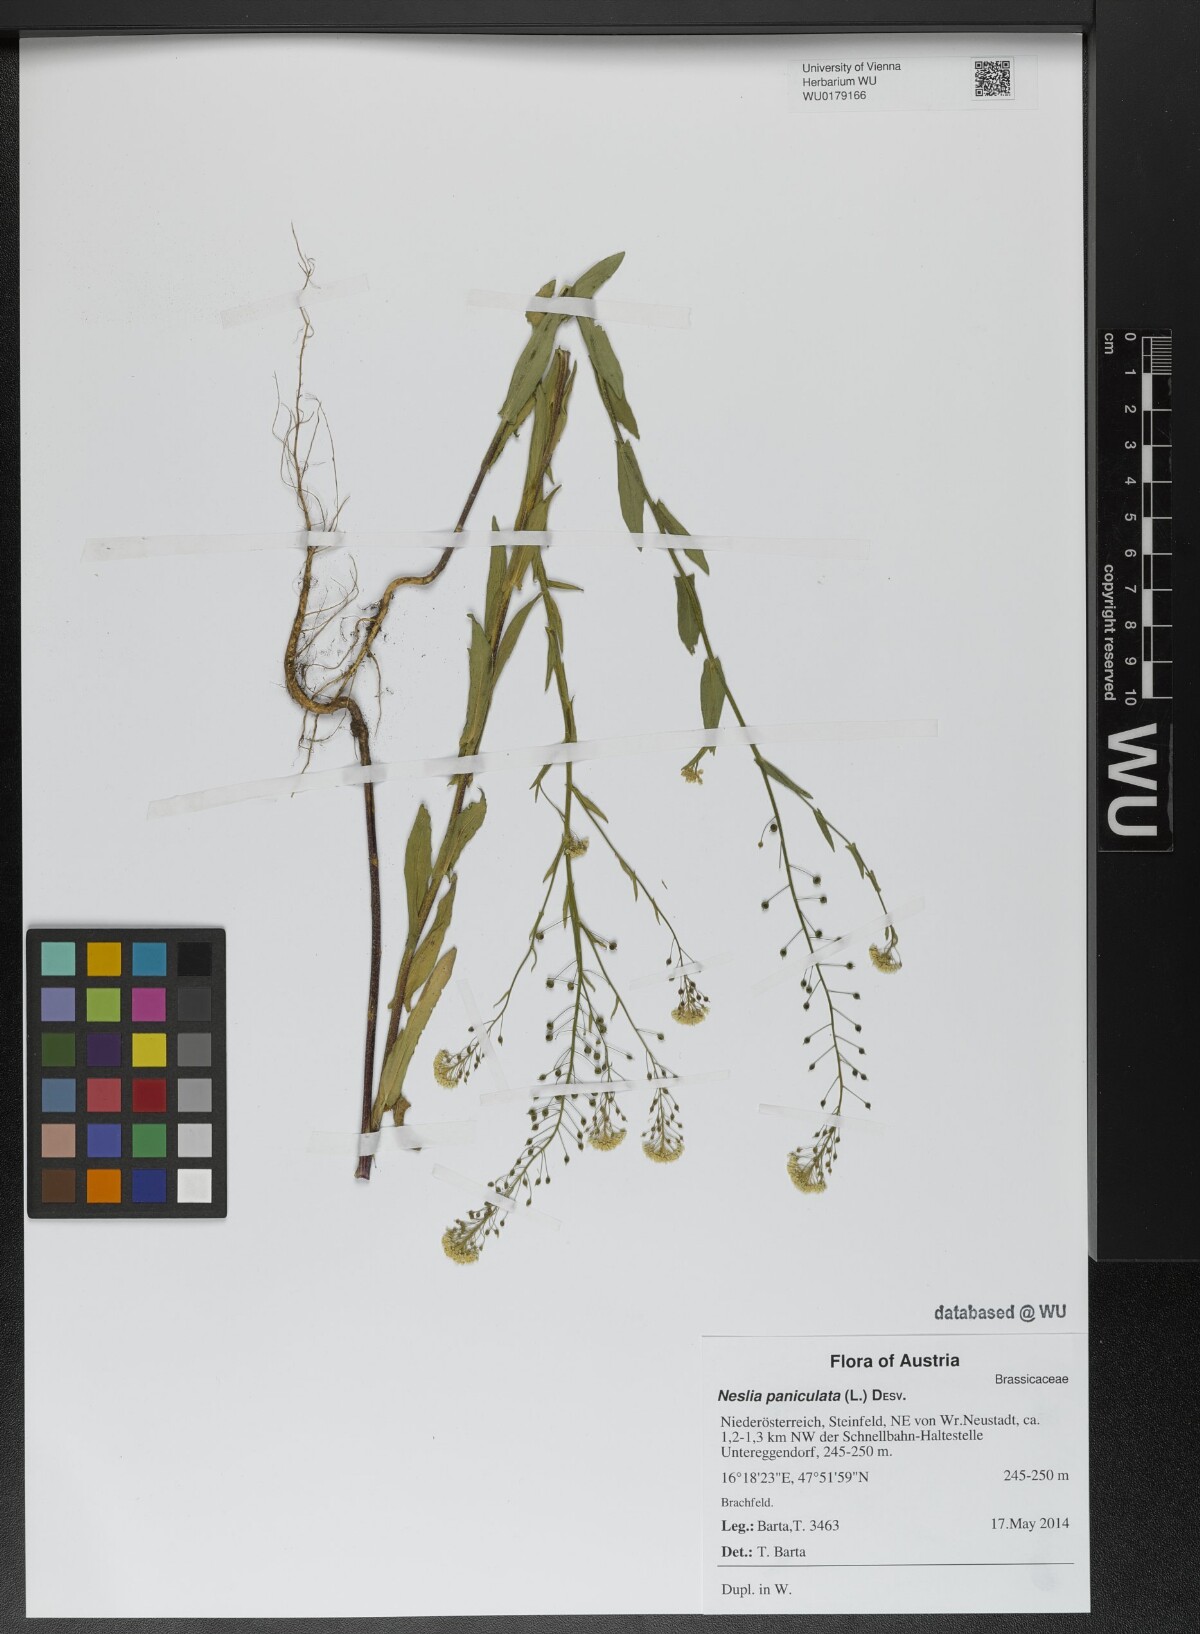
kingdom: Plantae
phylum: Tracheophyta
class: Magnoliopsida
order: Brassicales
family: Brassicaceae
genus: Neslia
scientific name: Neslia paniculata
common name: Ball mustard
